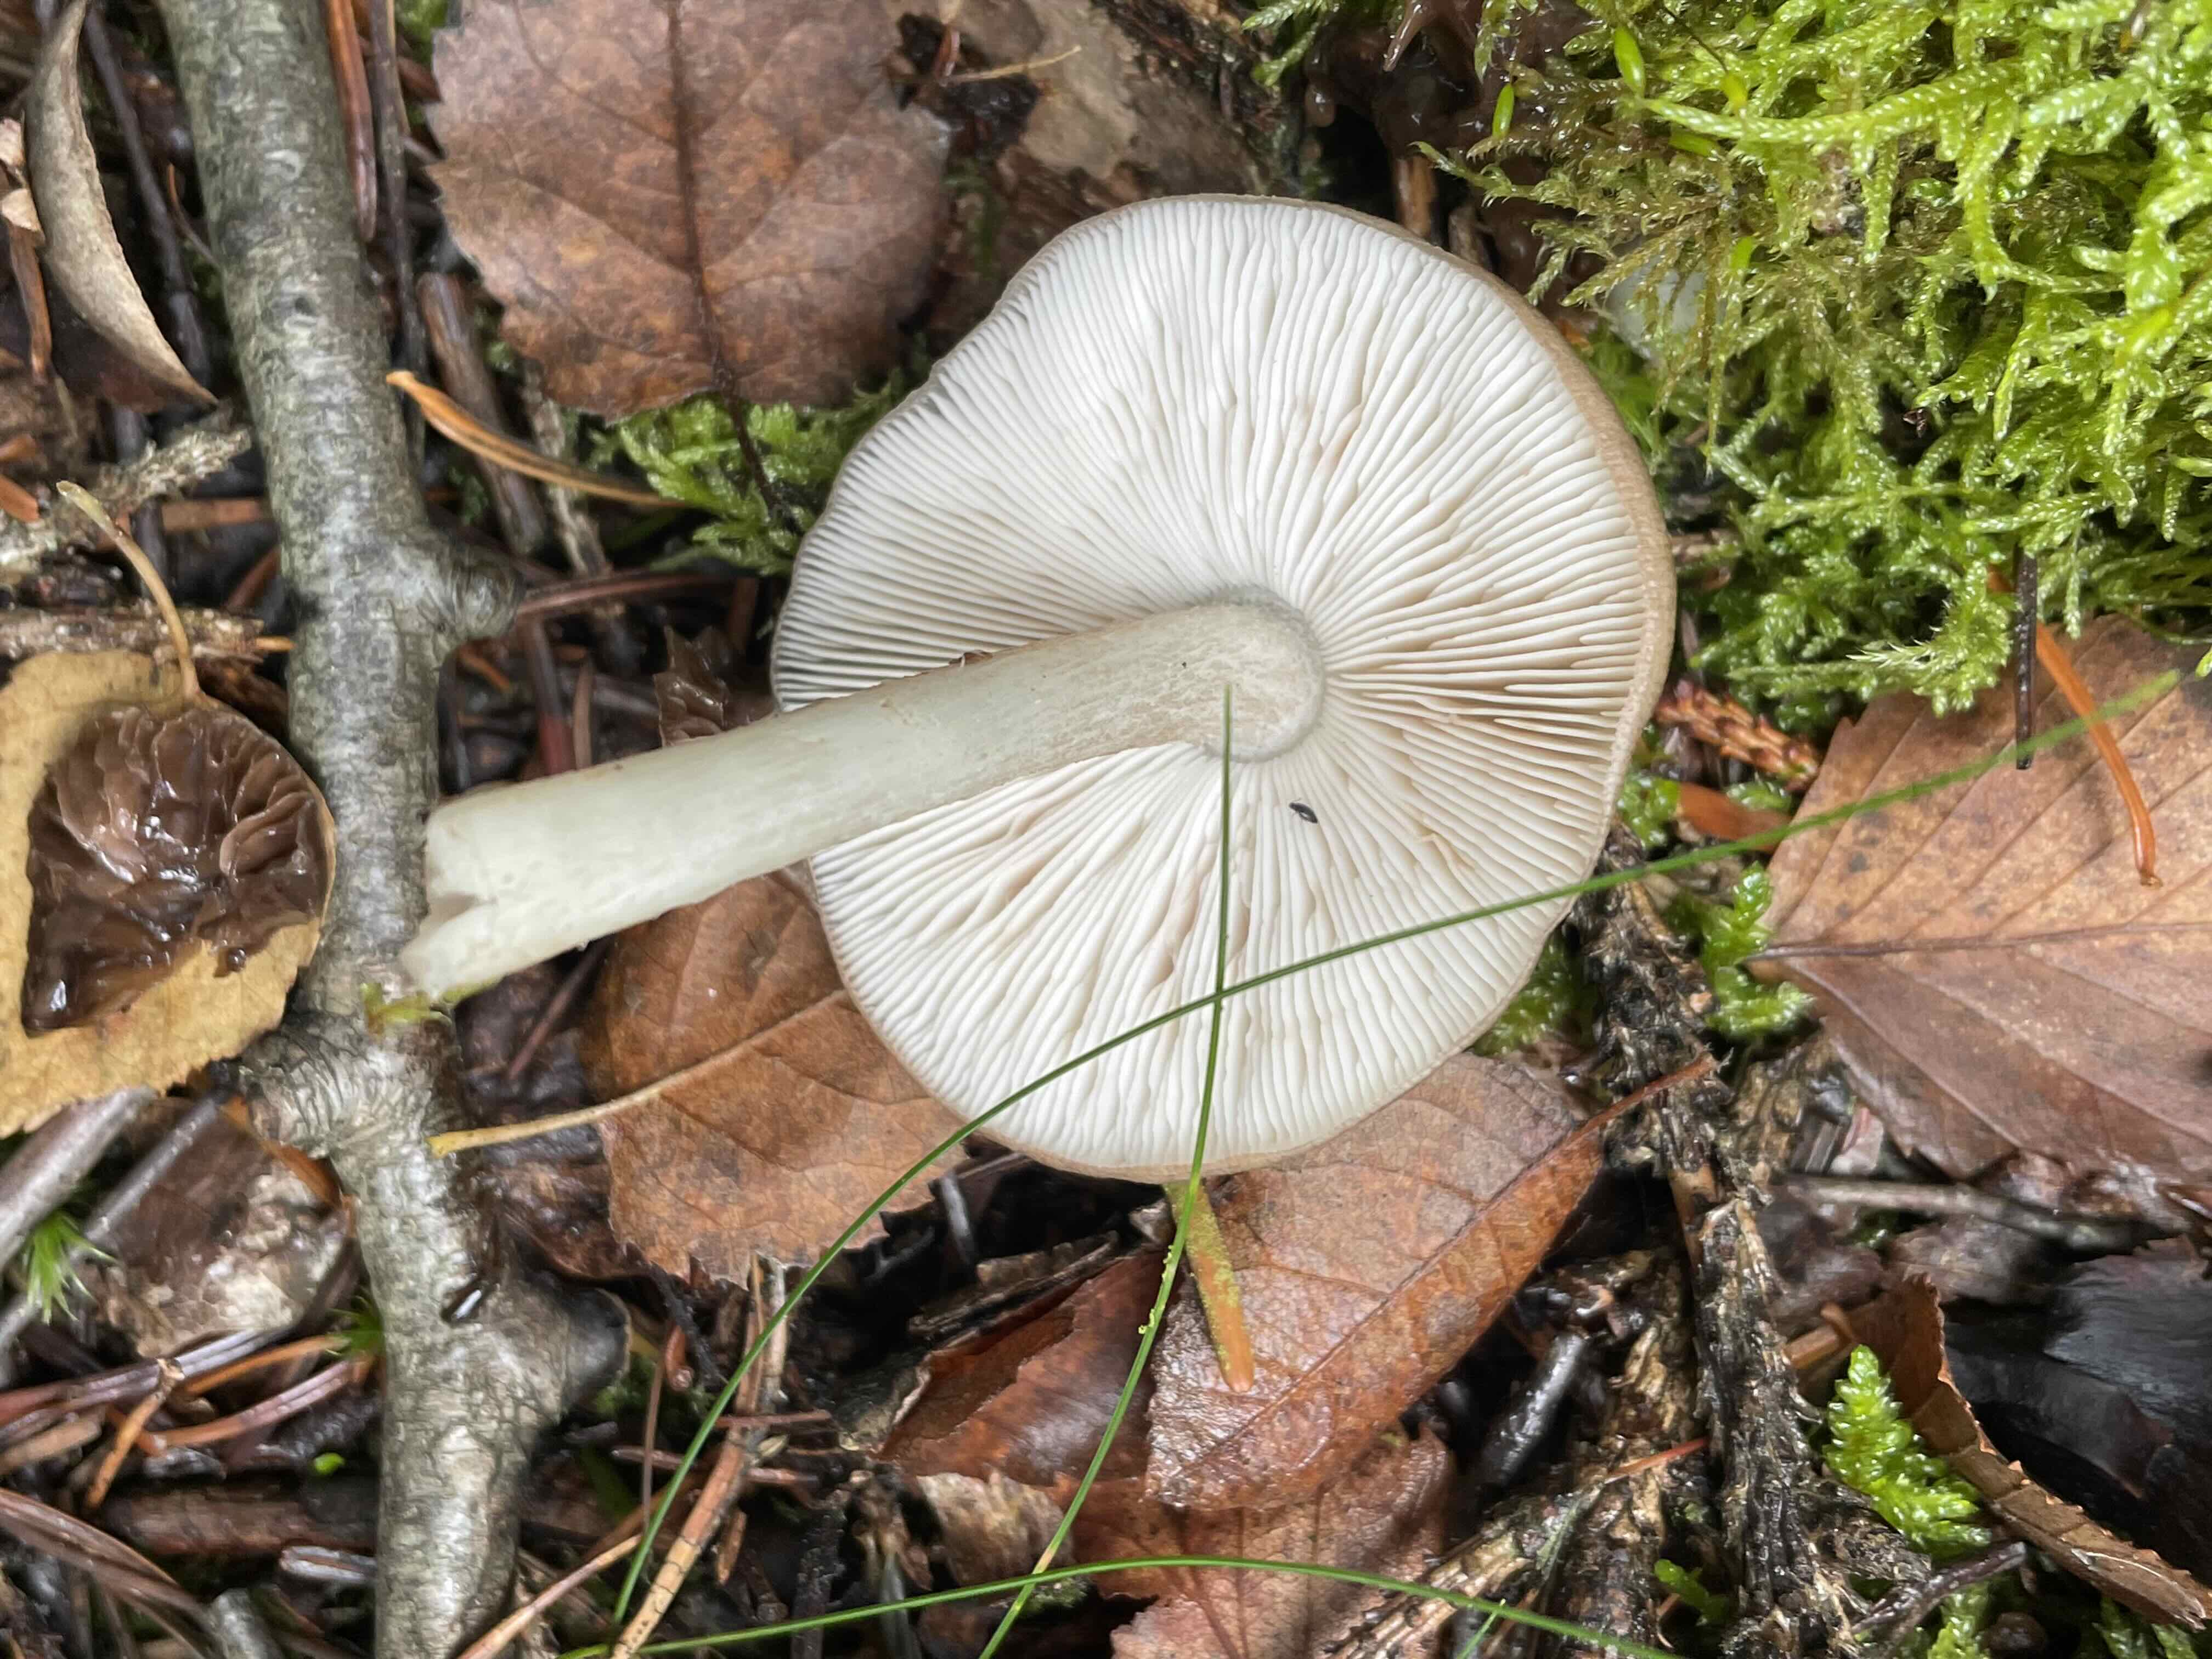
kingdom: Fungi
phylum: Basidiomycota
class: Agaricomycetes
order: Agaricales
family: Pluteaceae
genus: Pluteus
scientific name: Pluteus cervinus
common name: sodfarvet skærmhat
